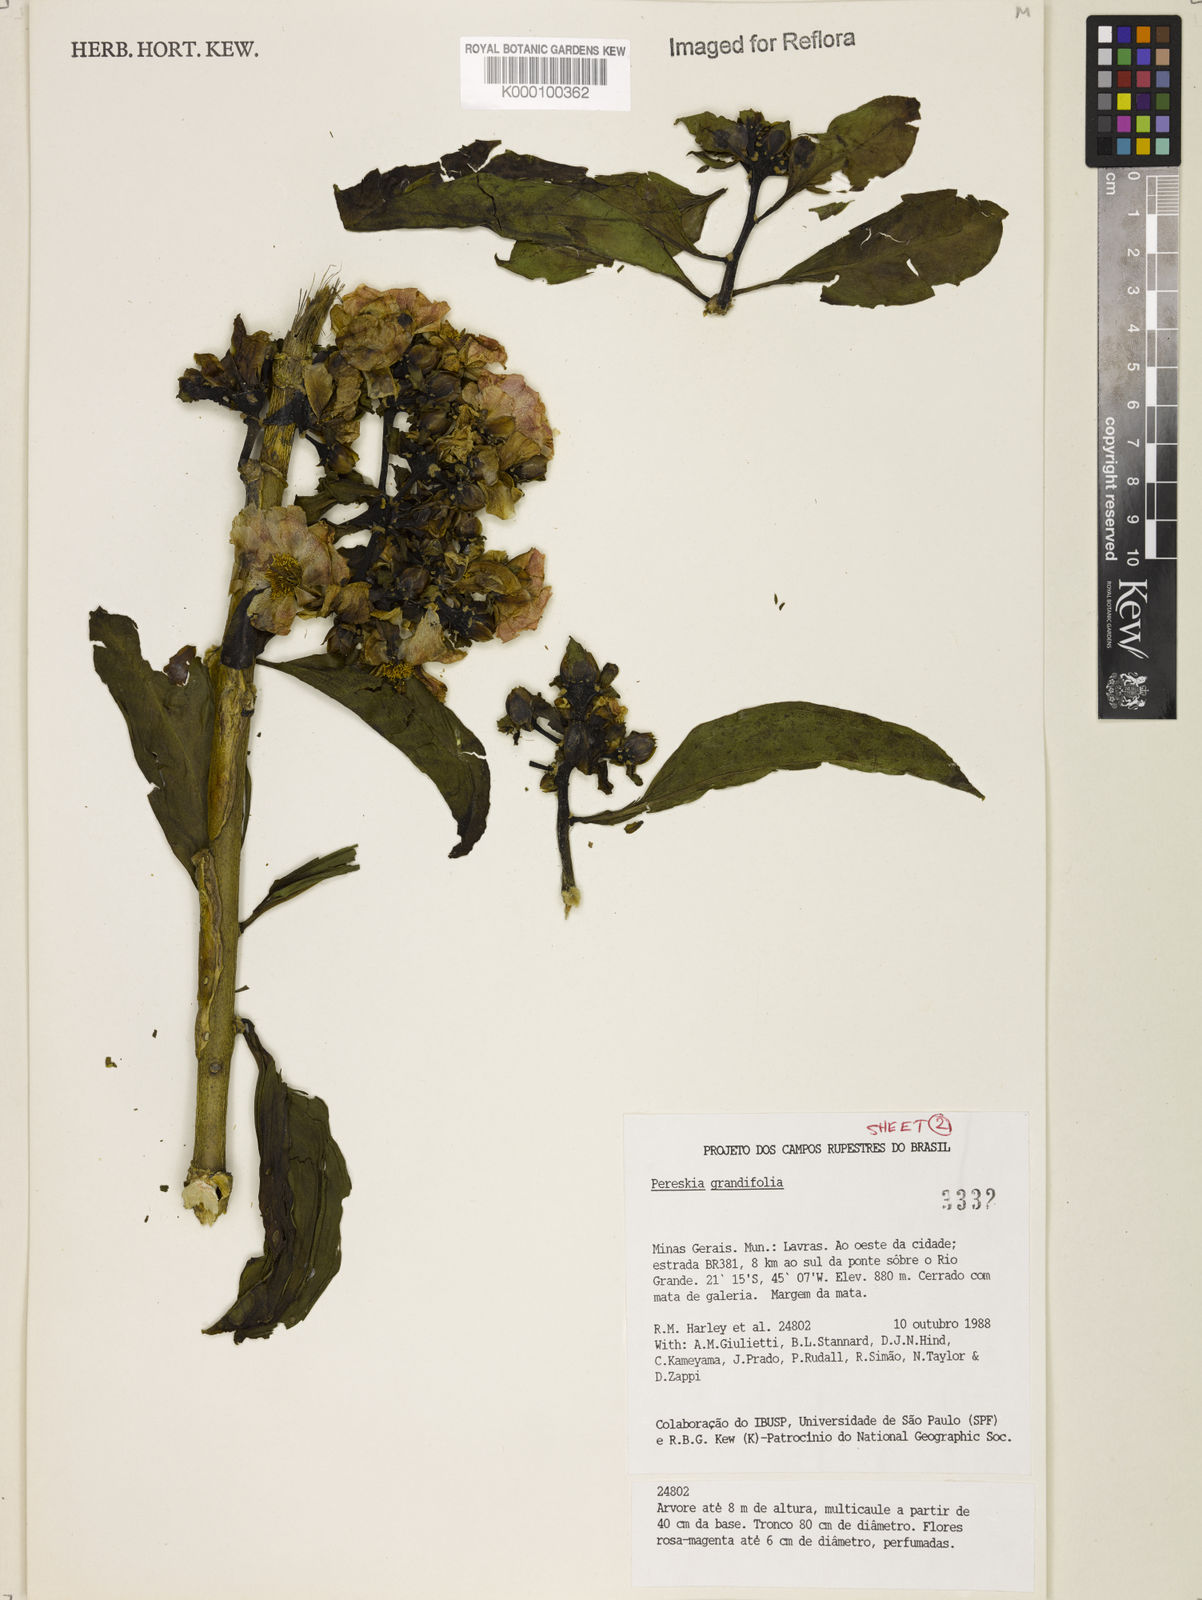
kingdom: Plantae
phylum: Tracheophyta
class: Magnoliopsida
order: Caryophyllales
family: Cactaceae
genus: Pereskia
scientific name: Pereskia grandifolia
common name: Rose cactus
